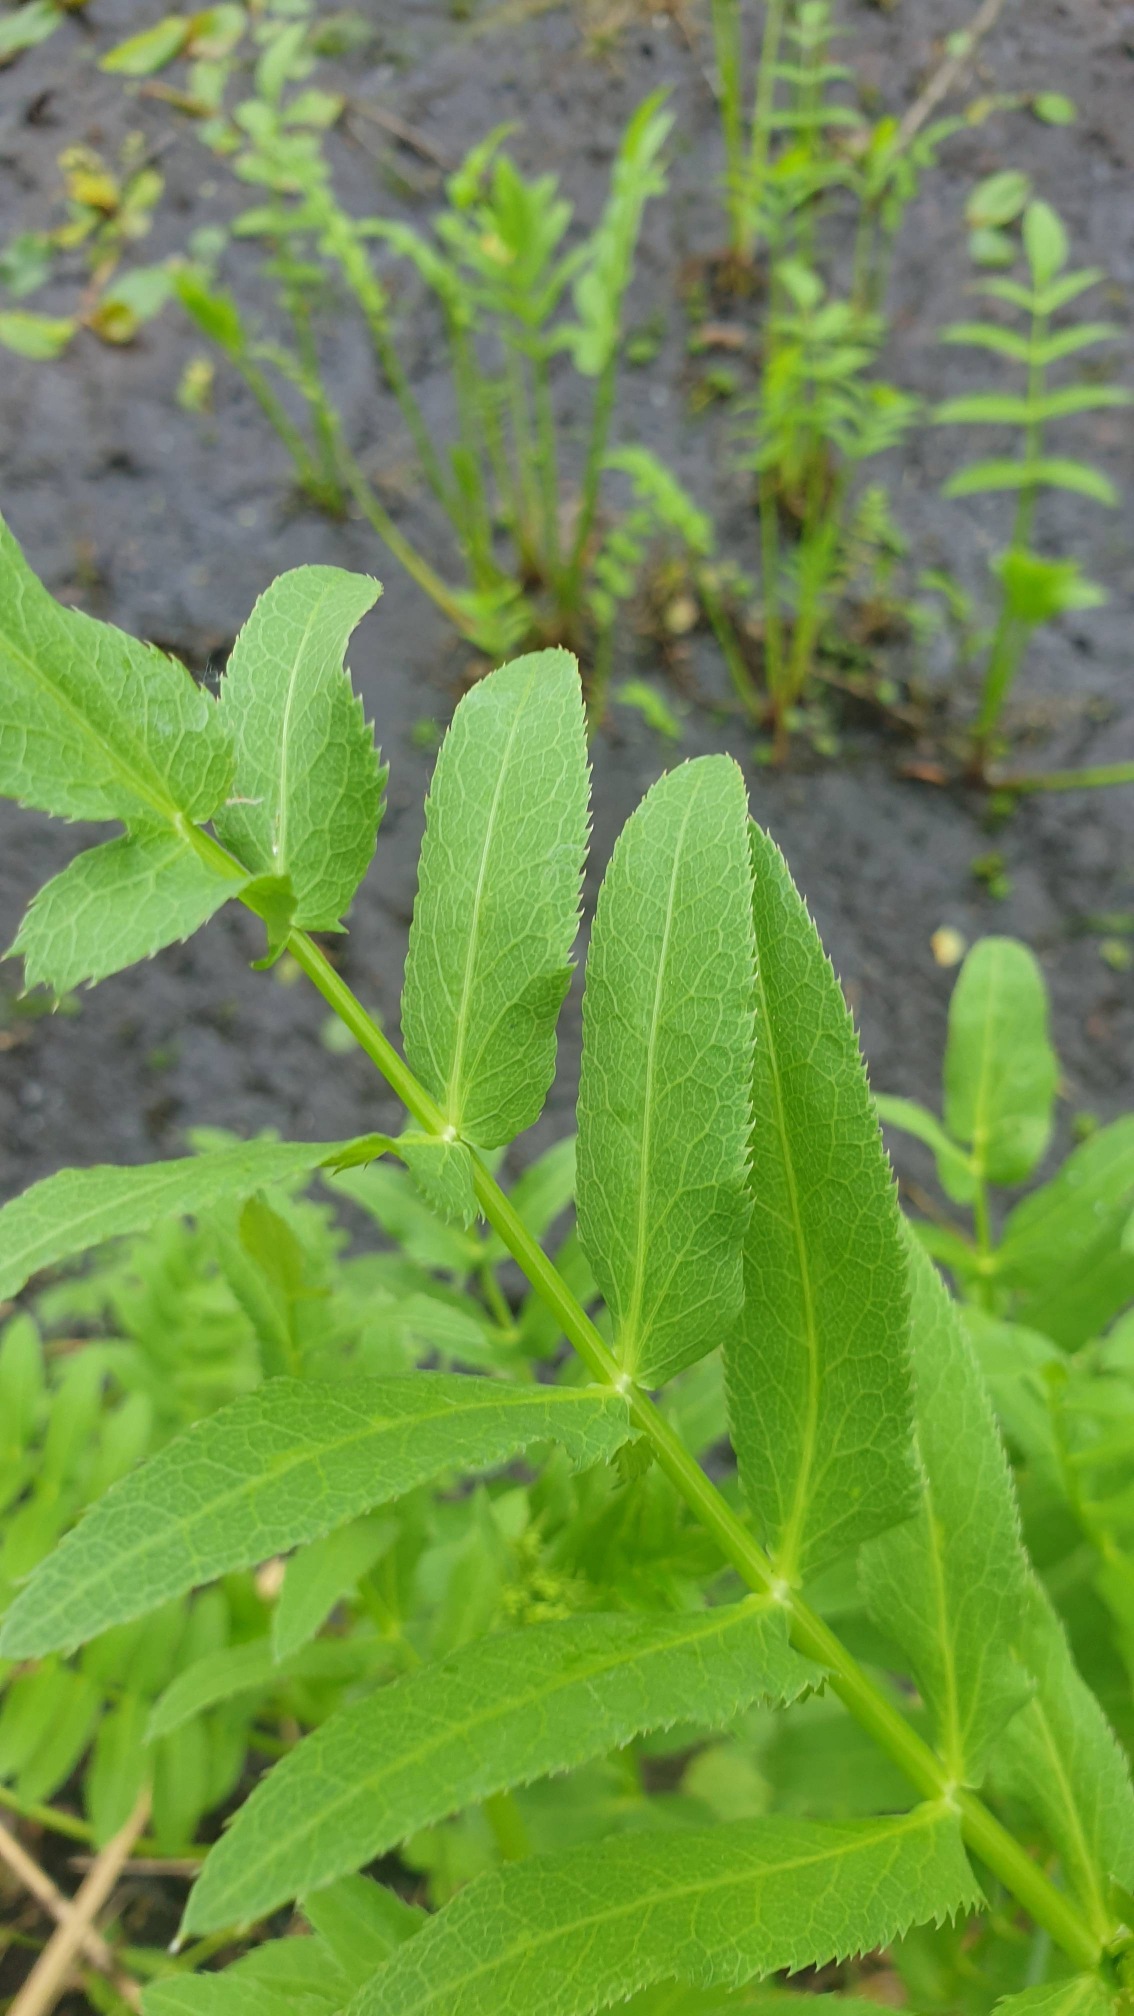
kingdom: Plantae
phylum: Tracheophyta
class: Magnoliopsida
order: Apiales
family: Apiaceae
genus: Sium
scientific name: Sium latifolium
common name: Bredbladet mærke
